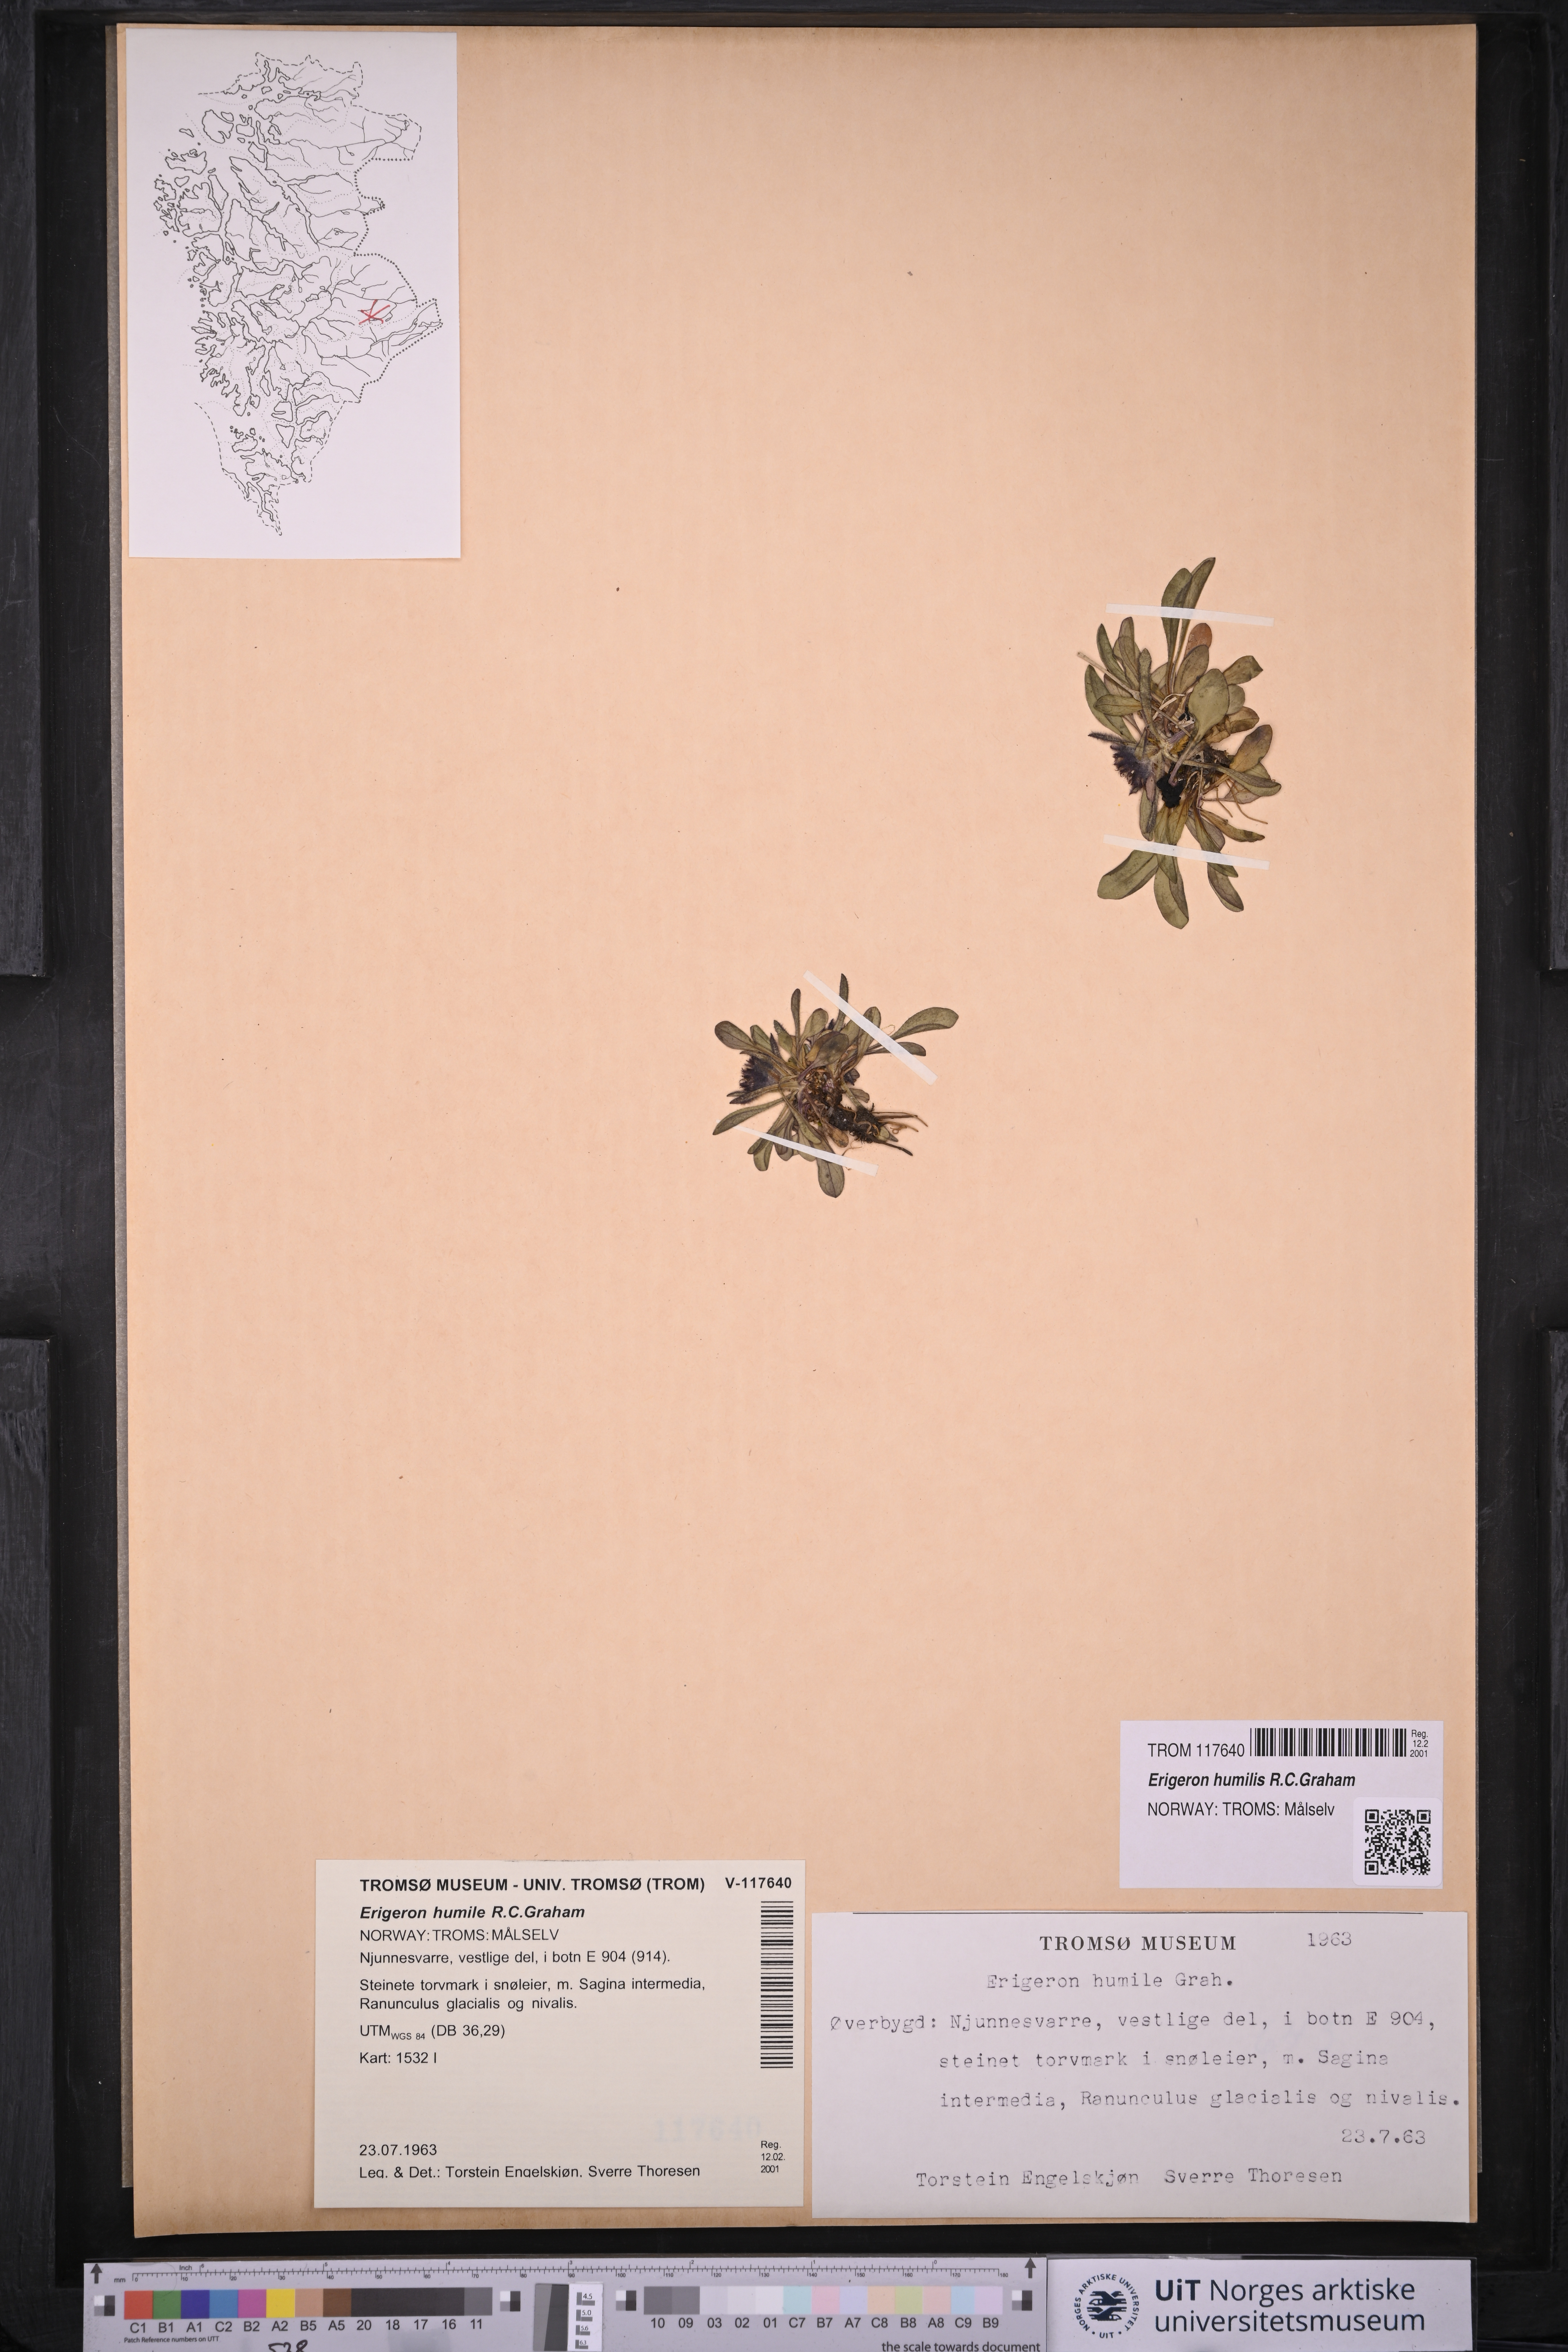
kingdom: Plantae
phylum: Tracheophyta
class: Magnoliopsida
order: Asterales
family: Asteraceae
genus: Erigeron
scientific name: Erigeron humilis
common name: Arctic-alpine fleabane
